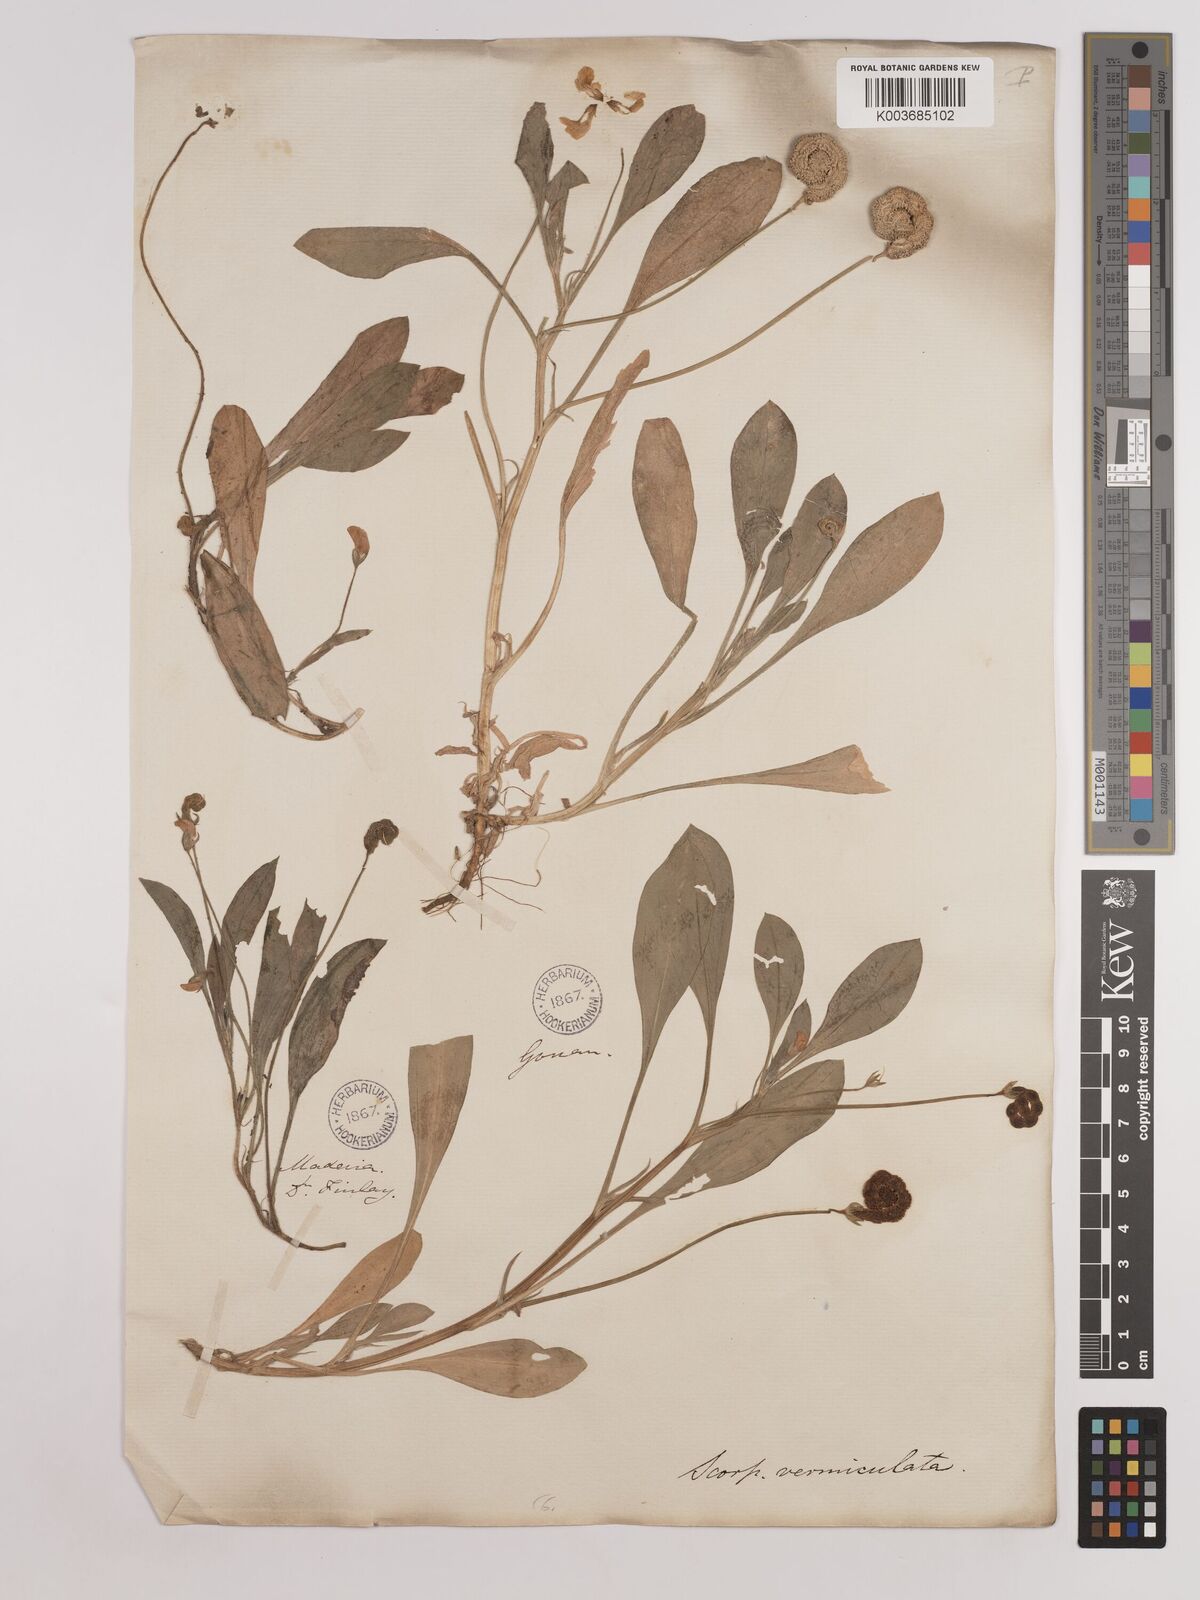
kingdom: Plantae
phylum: Tracheophyta
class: Magnoliopsida
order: Fabales
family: Fabaceae
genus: Scorpiurus
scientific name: Scorpiurus vermiculatus
